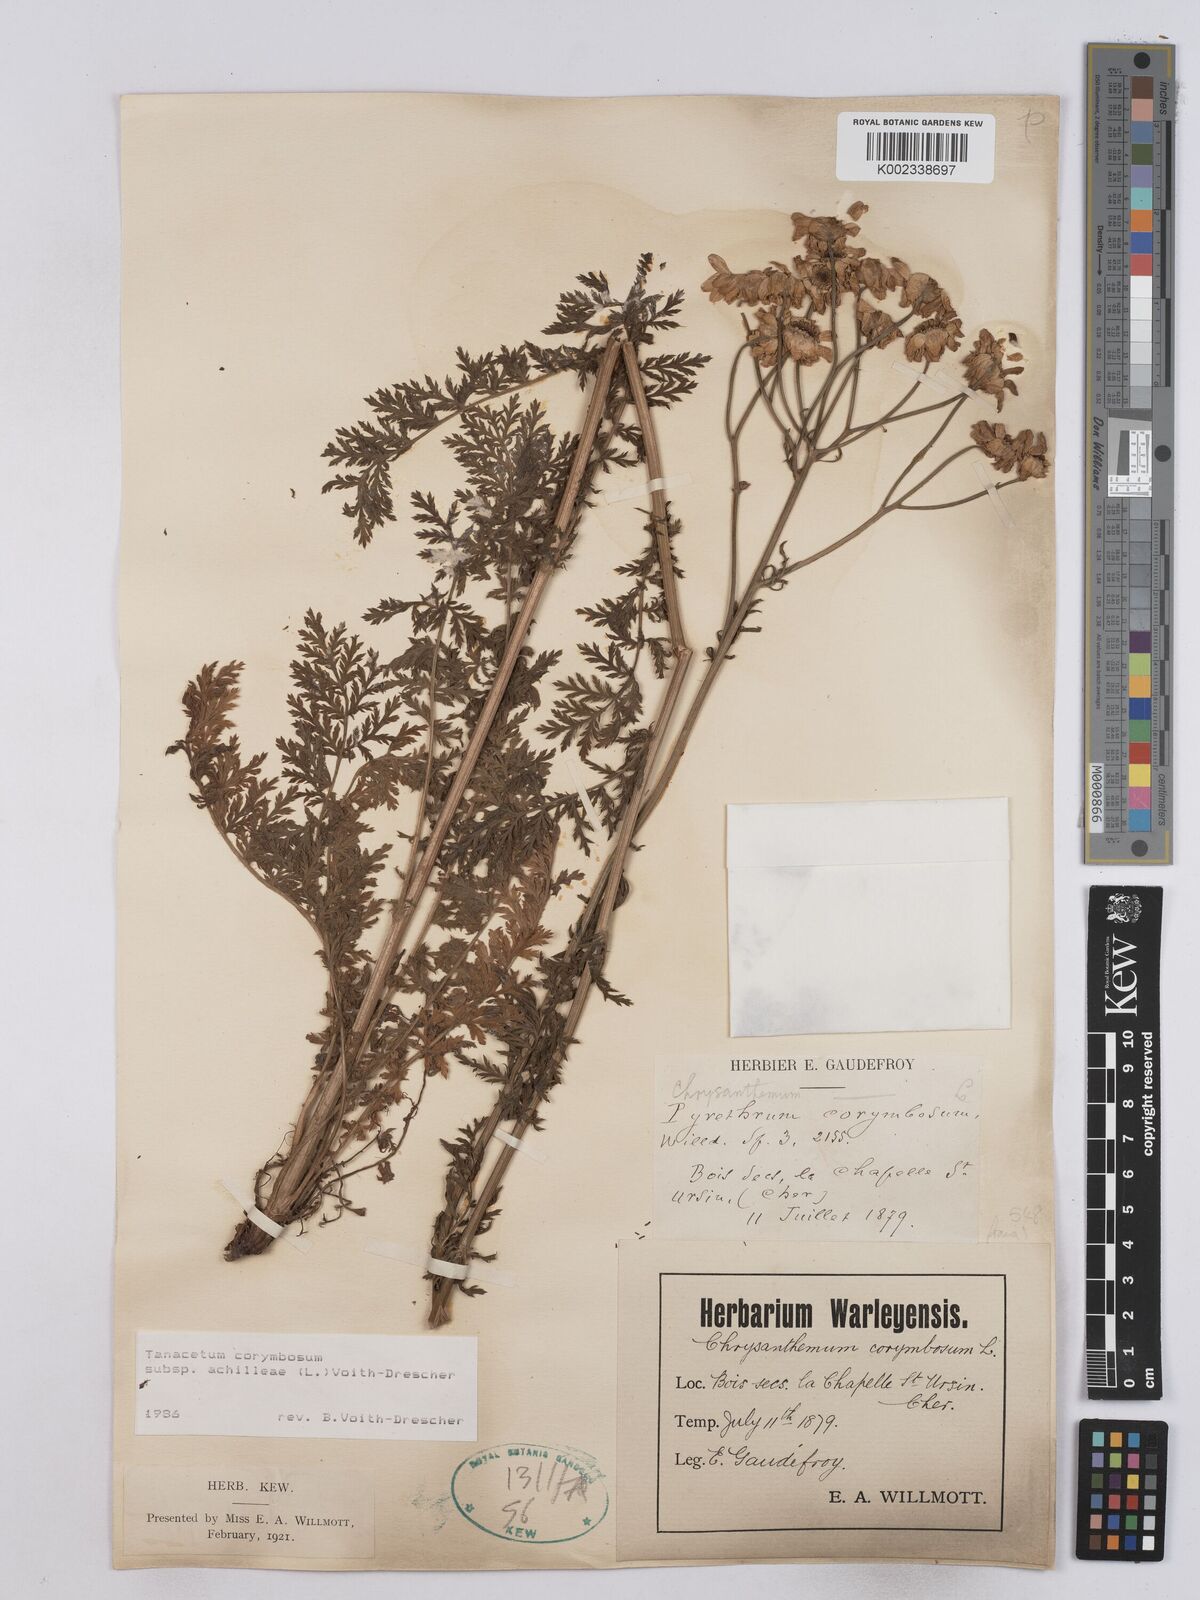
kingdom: Plantae
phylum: Tracheophyta
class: Magnoliopsida
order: Asterales
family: Asteraceae
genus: Tanacetum
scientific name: Tanacetum corymbosum
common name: Scentless feverfew
